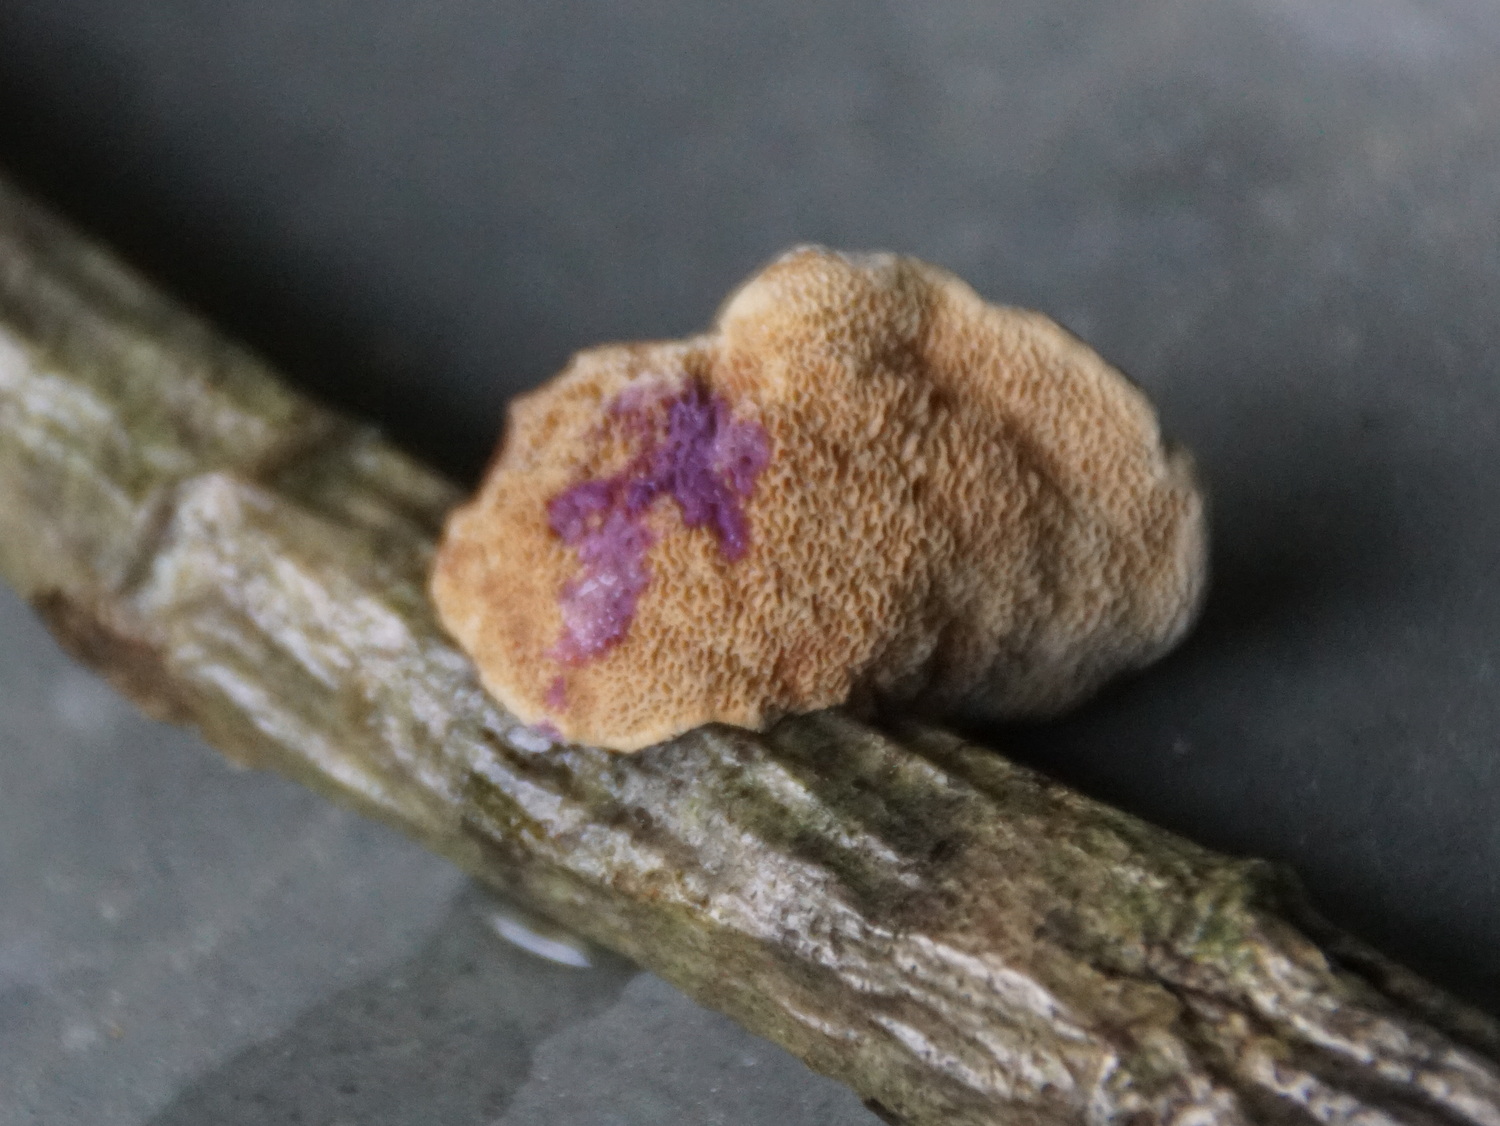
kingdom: Fungi
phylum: Basidiomycota
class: Agaricomycetes
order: Polyporales
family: Phanerochaetaceae
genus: Hapalopilus
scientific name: Hapalopilus rutilans
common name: rødlig okkerporesvamp
